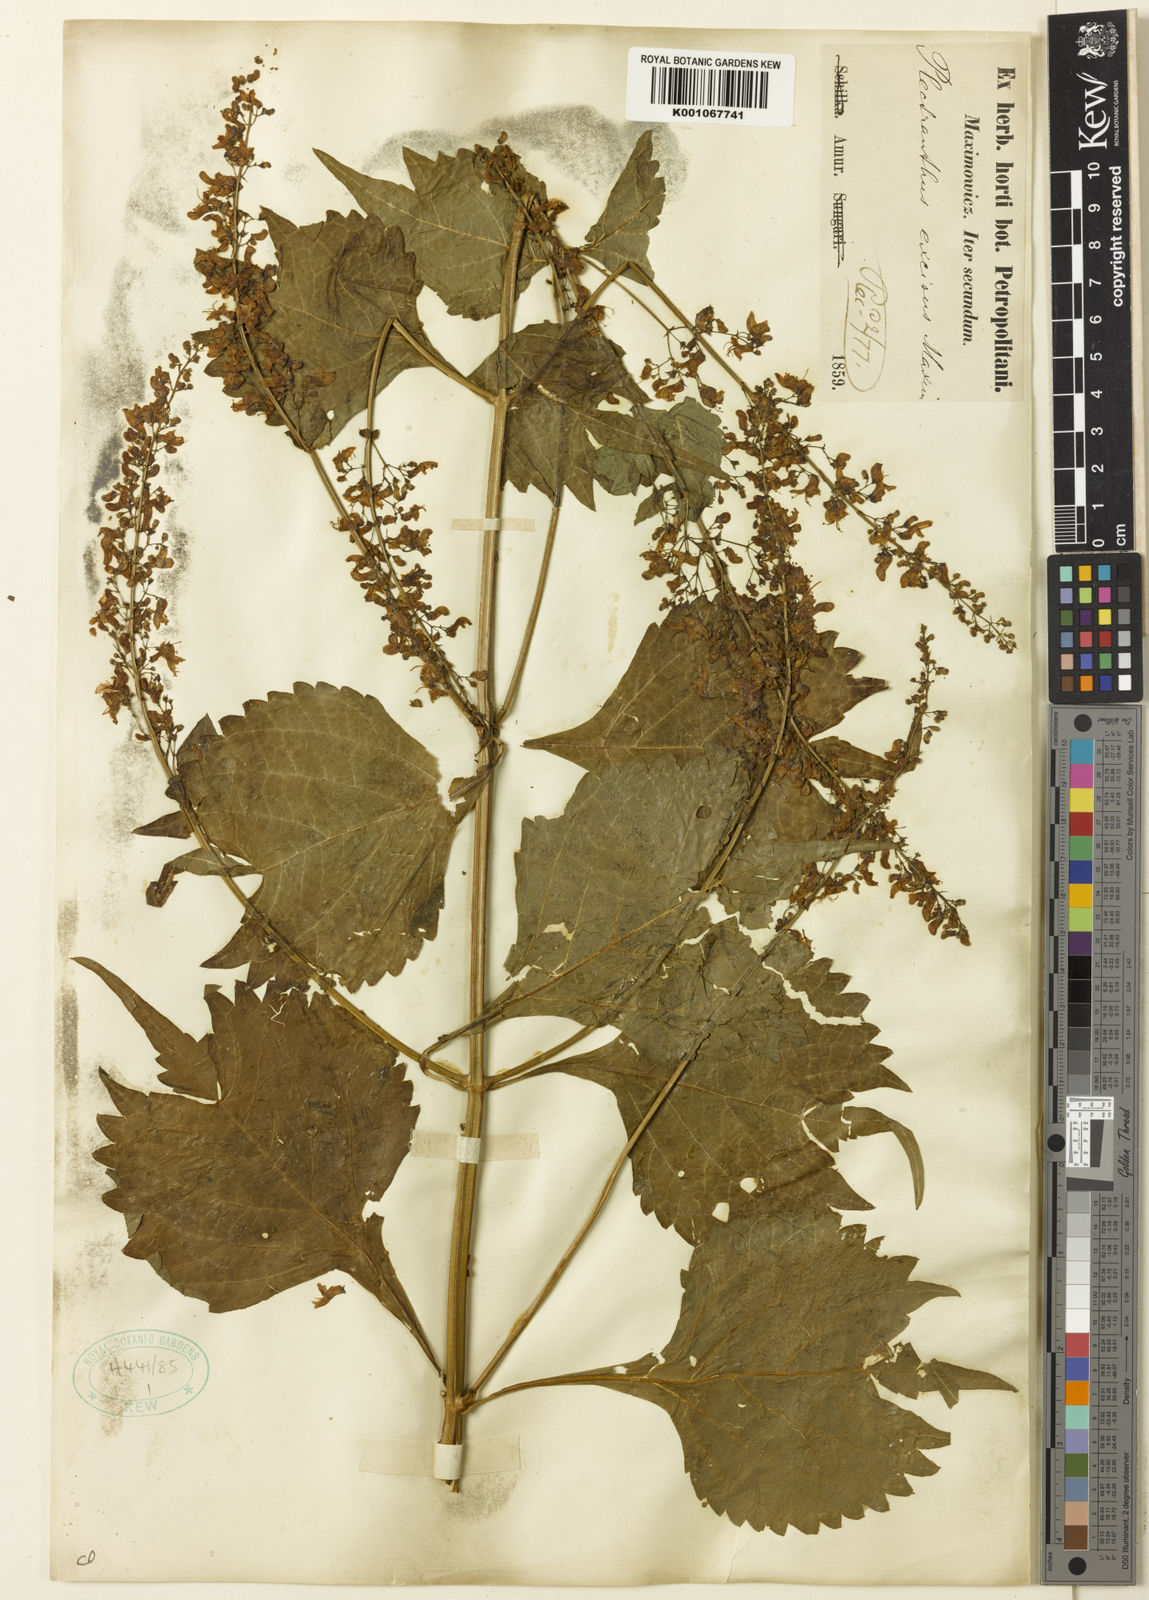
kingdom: Plantae
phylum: Tracheophyta
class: Magnoliopsida
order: Lamiales
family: Lamiaceae
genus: Isodon
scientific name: Isodon
